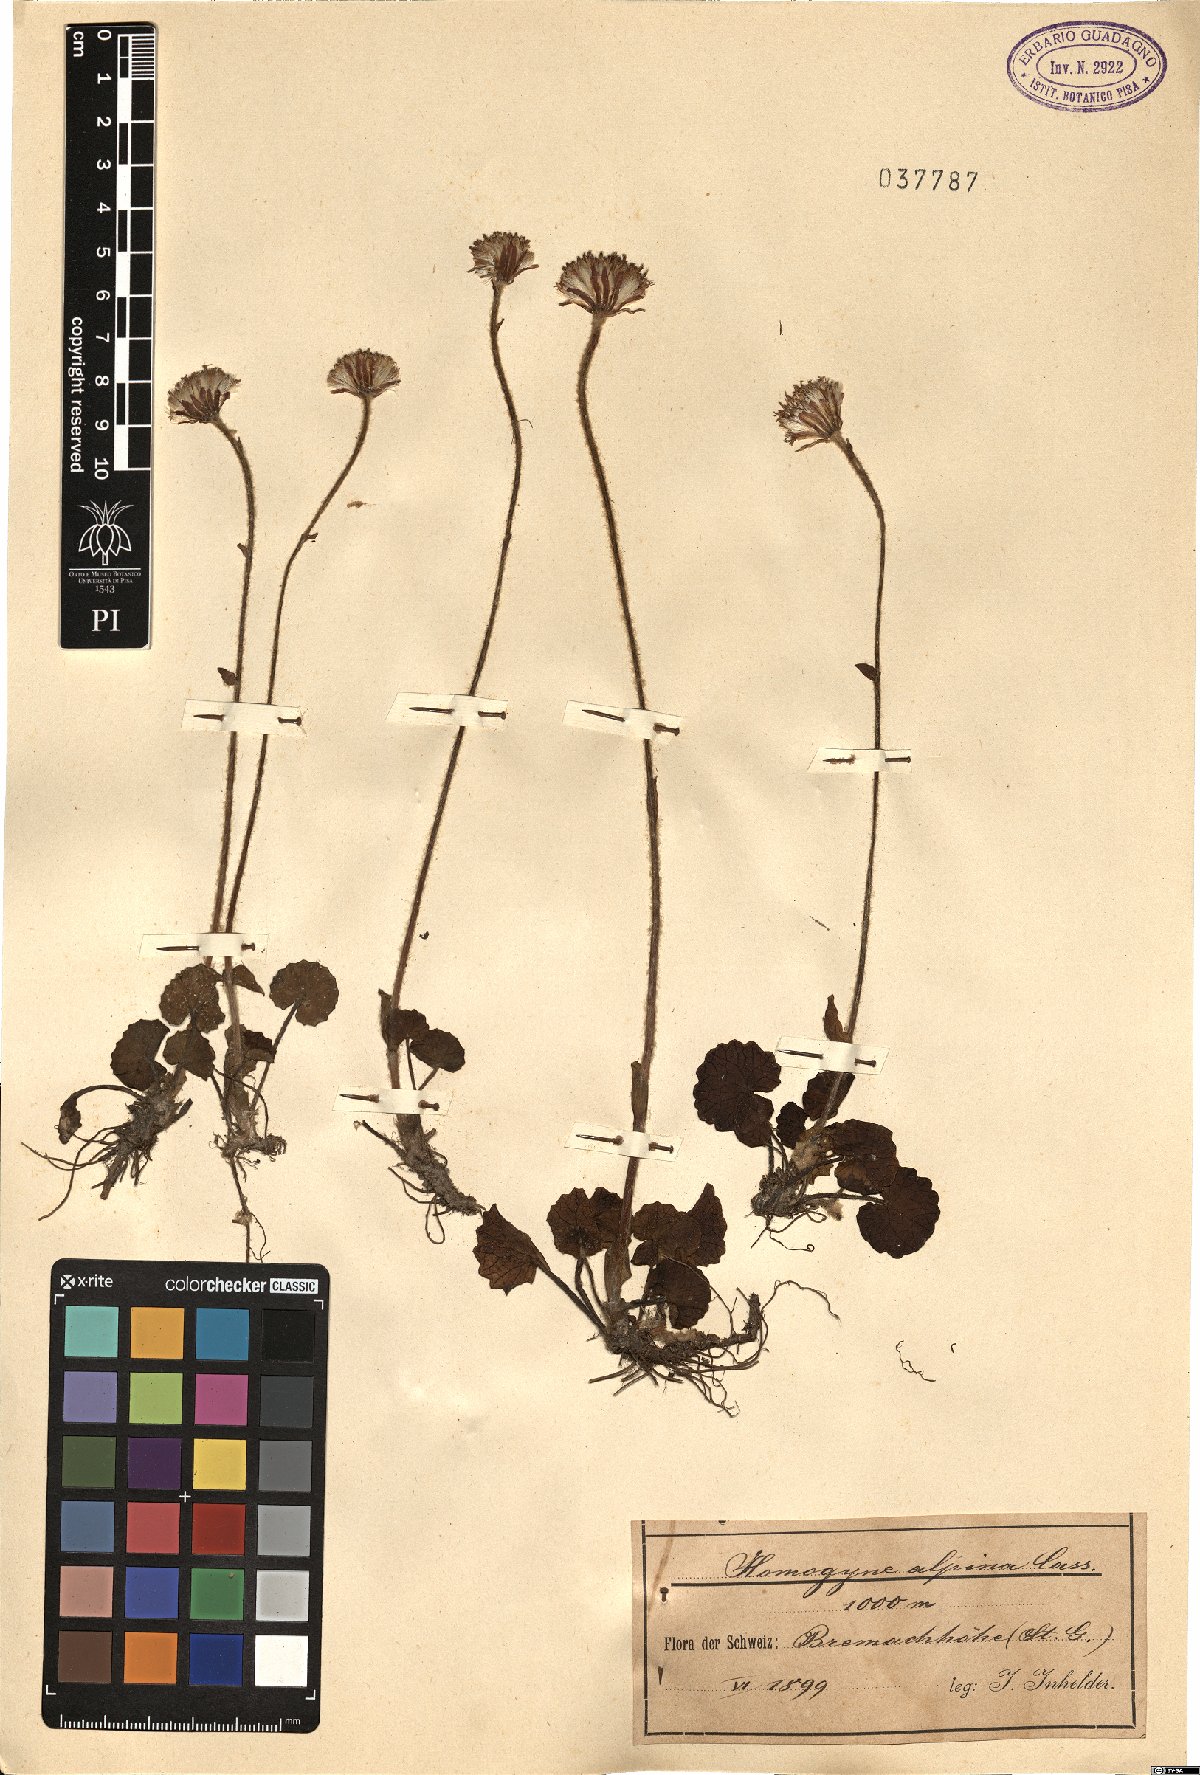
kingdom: Plantae
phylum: Tracheophyta
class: Magnoliopsida
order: Asterales
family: Asteraceae
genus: Homogyne
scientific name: Homogyne alpina
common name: Purple colt's-foot
